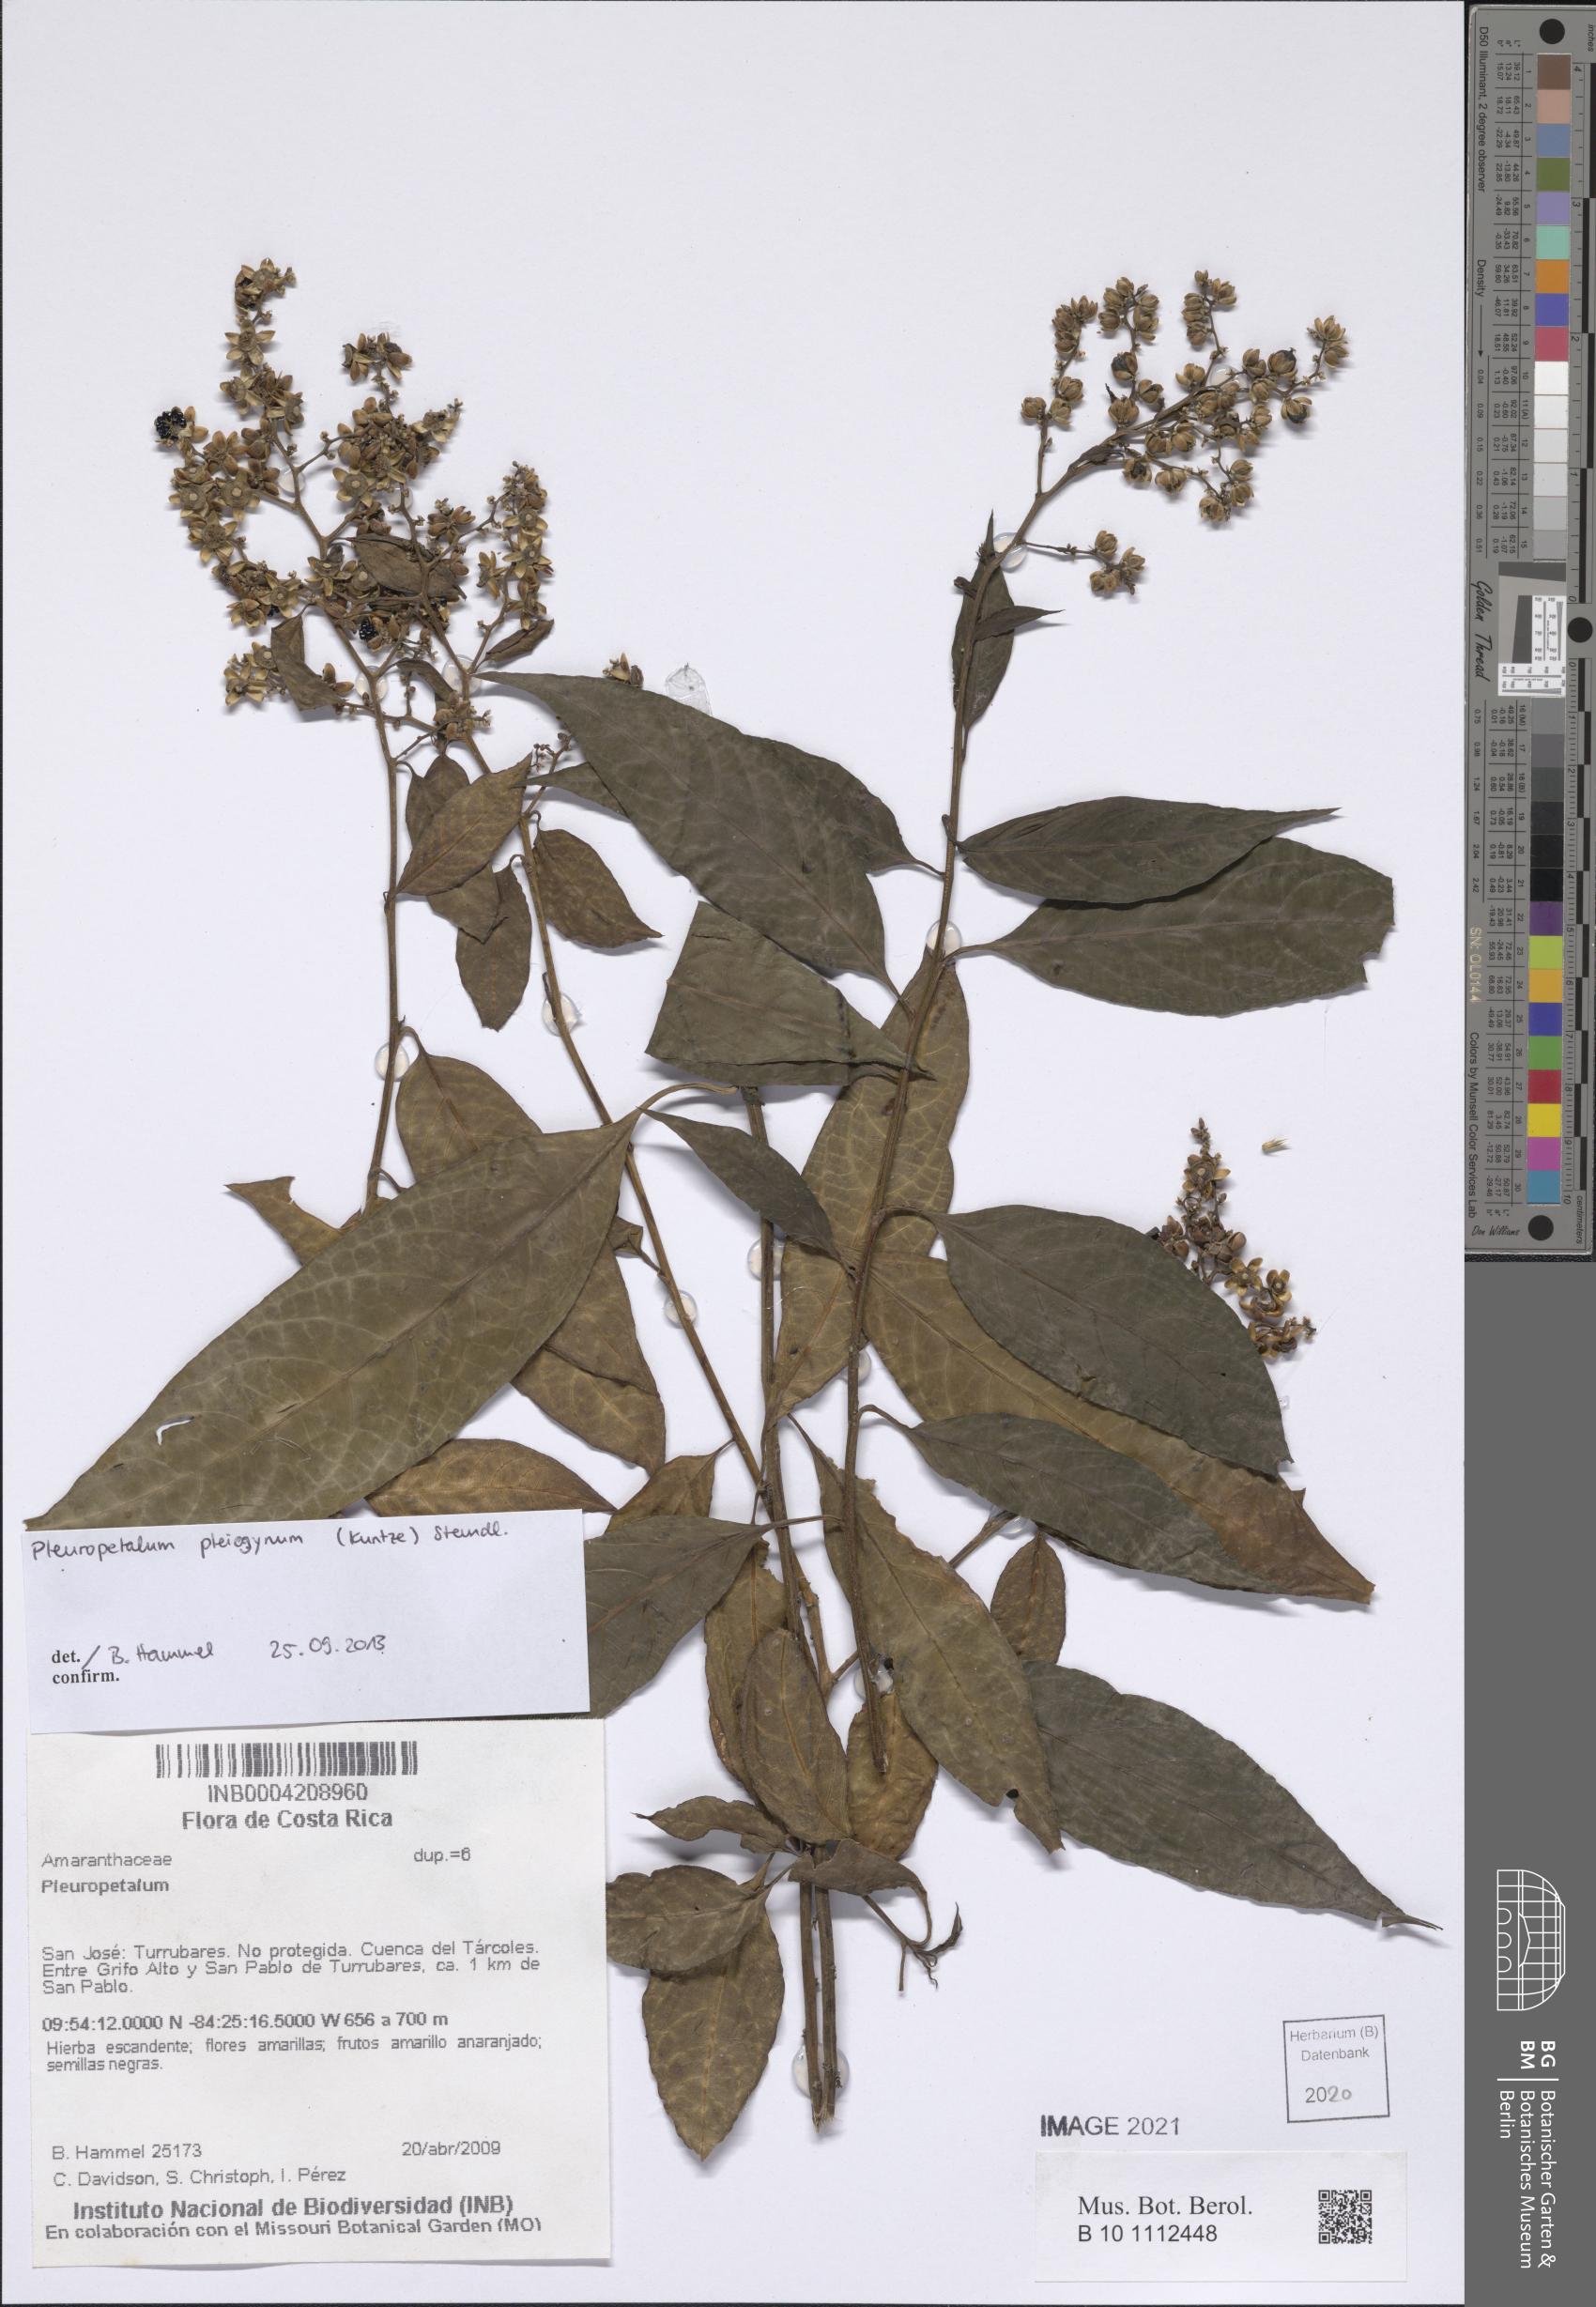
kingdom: Plantae
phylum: Tracheophyta
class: Magnoliopsida
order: Caryophyllales
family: Amaranthaceae
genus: Pleuropetalum
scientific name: Pleuropetalum pleiogynum
